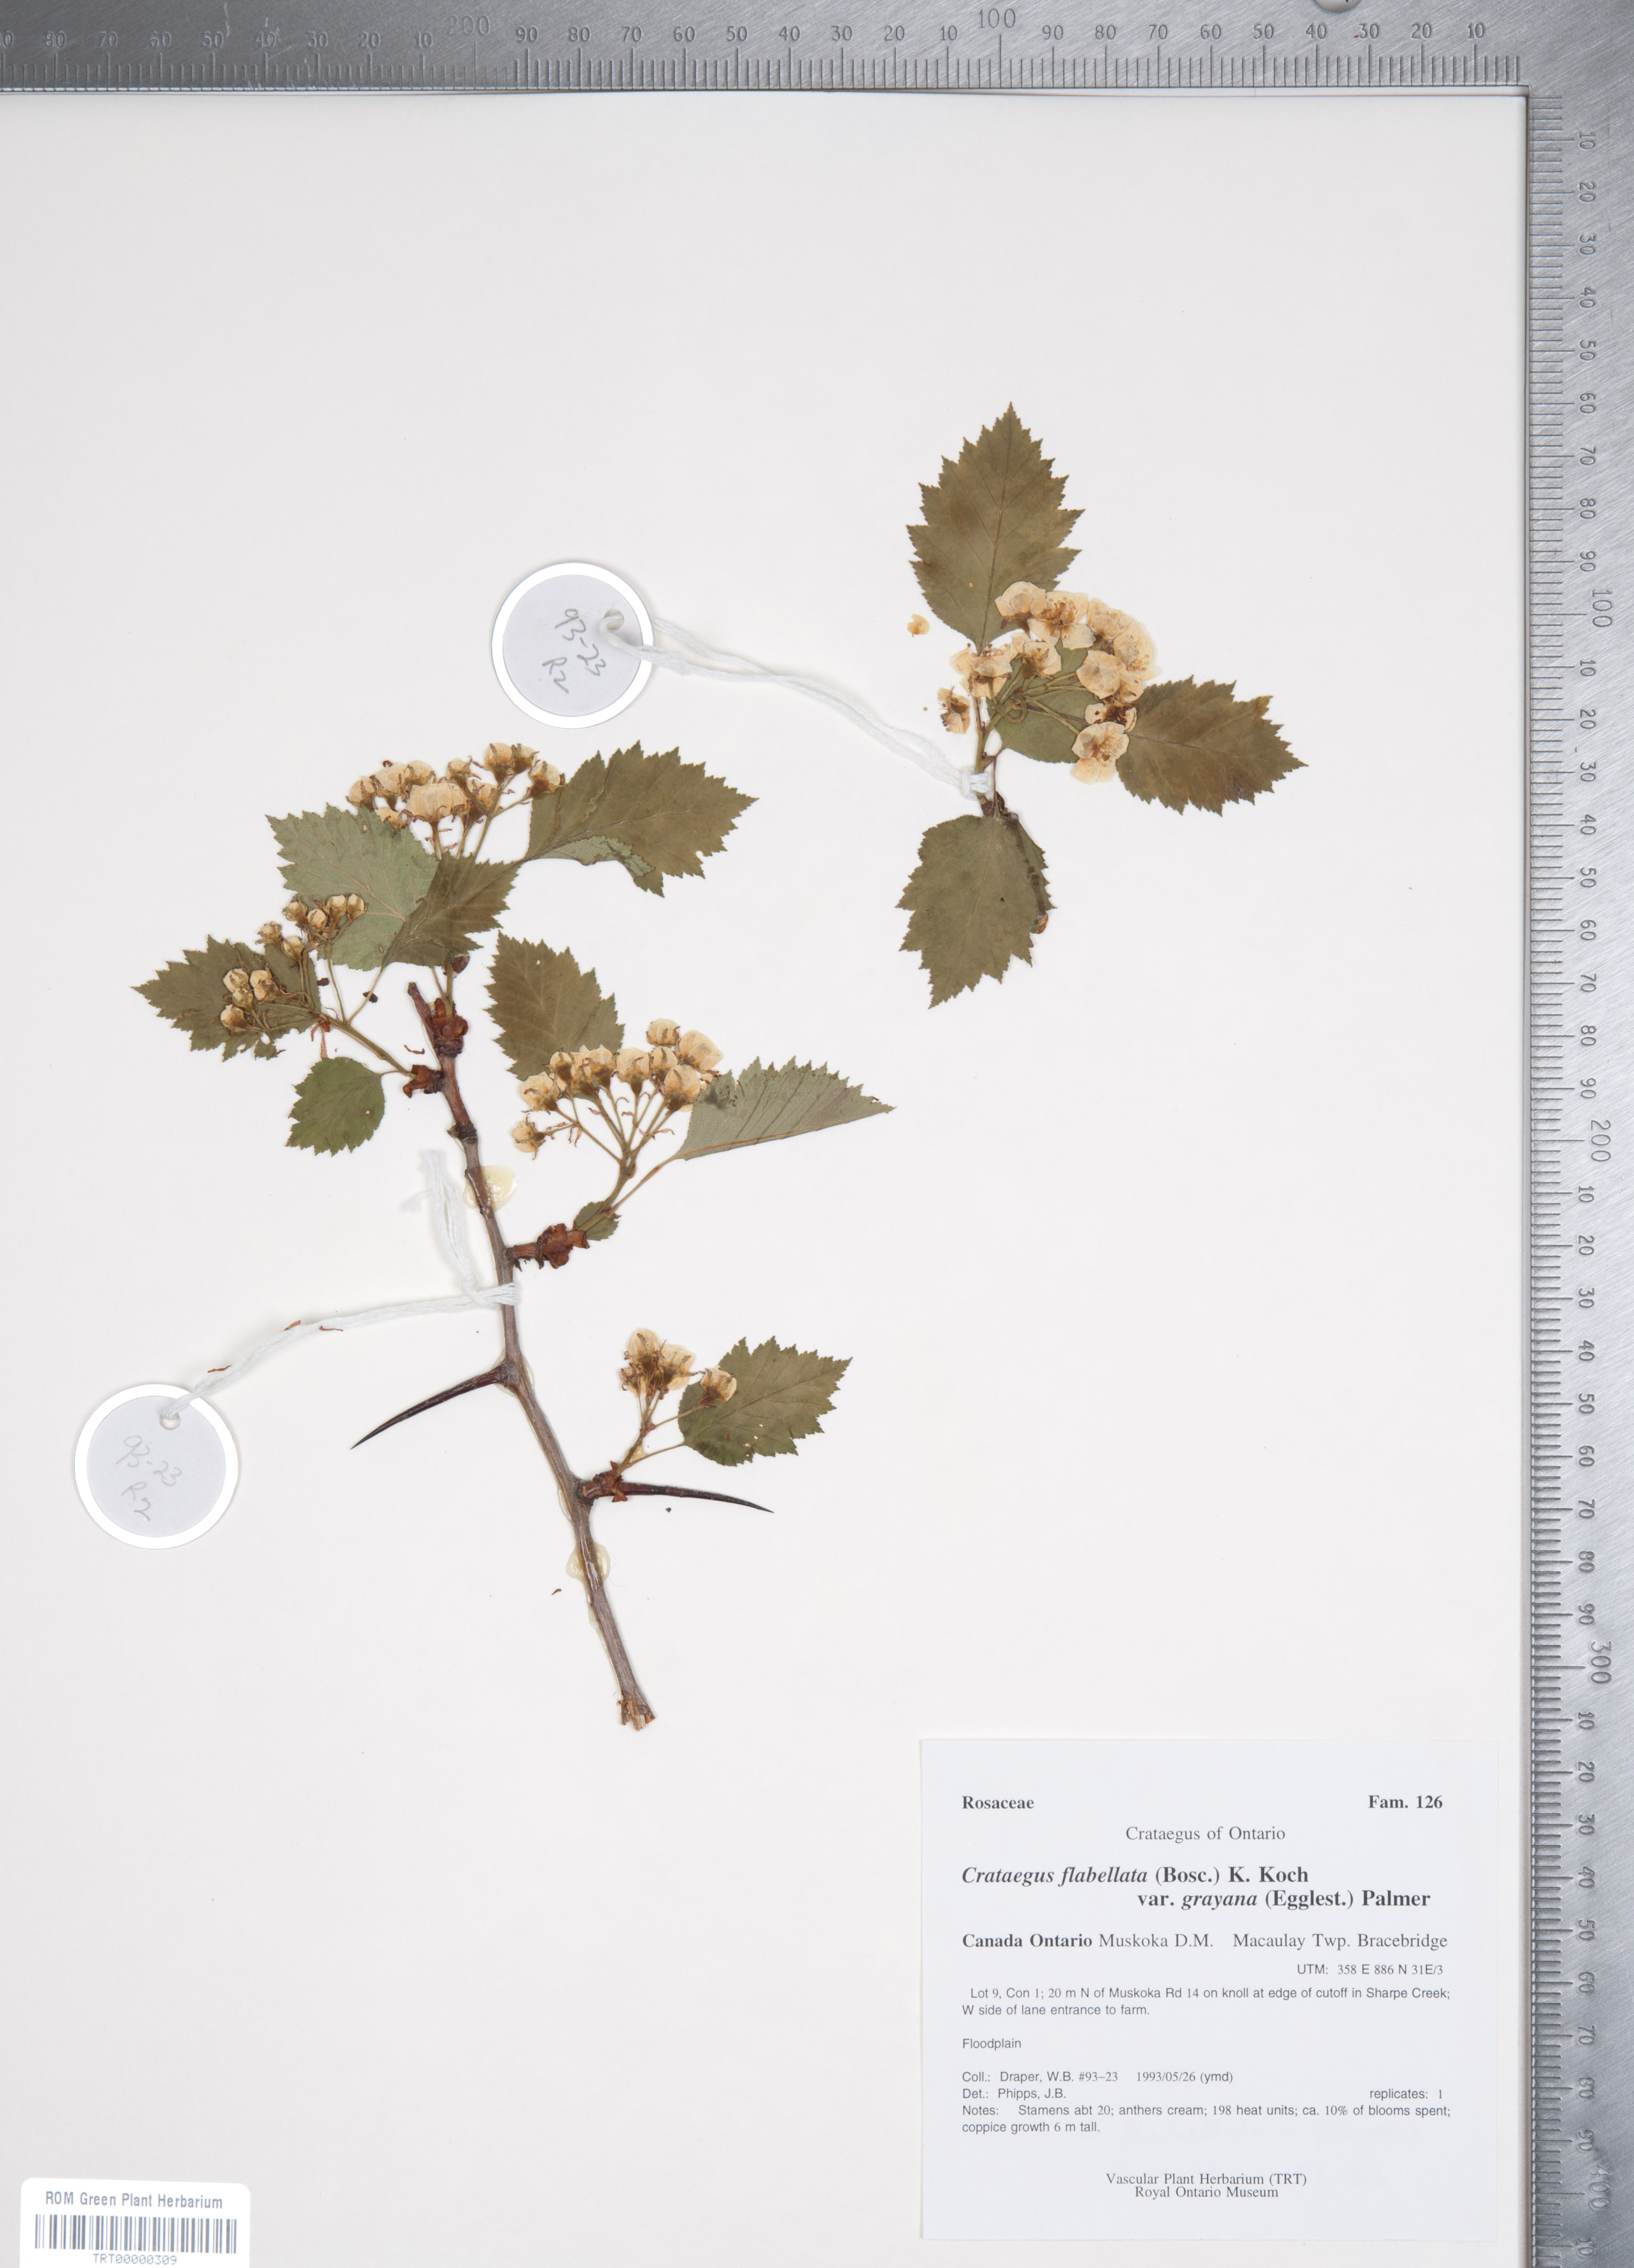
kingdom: Plantae
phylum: Tracheophyta
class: Magnoliopsida
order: Rosales
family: Rosaceae
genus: Crataegus
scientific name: Crataegus flabellata
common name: Bosc's hawthorn
